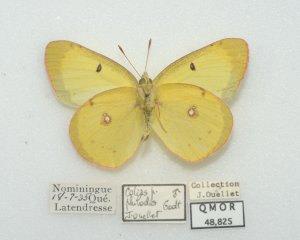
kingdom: Animalia
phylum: Arthropoda
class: Insecta
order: Lepidoptera
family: Pieridae
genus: Colias
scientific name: Colias philodice
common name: Clouded Sulphur
